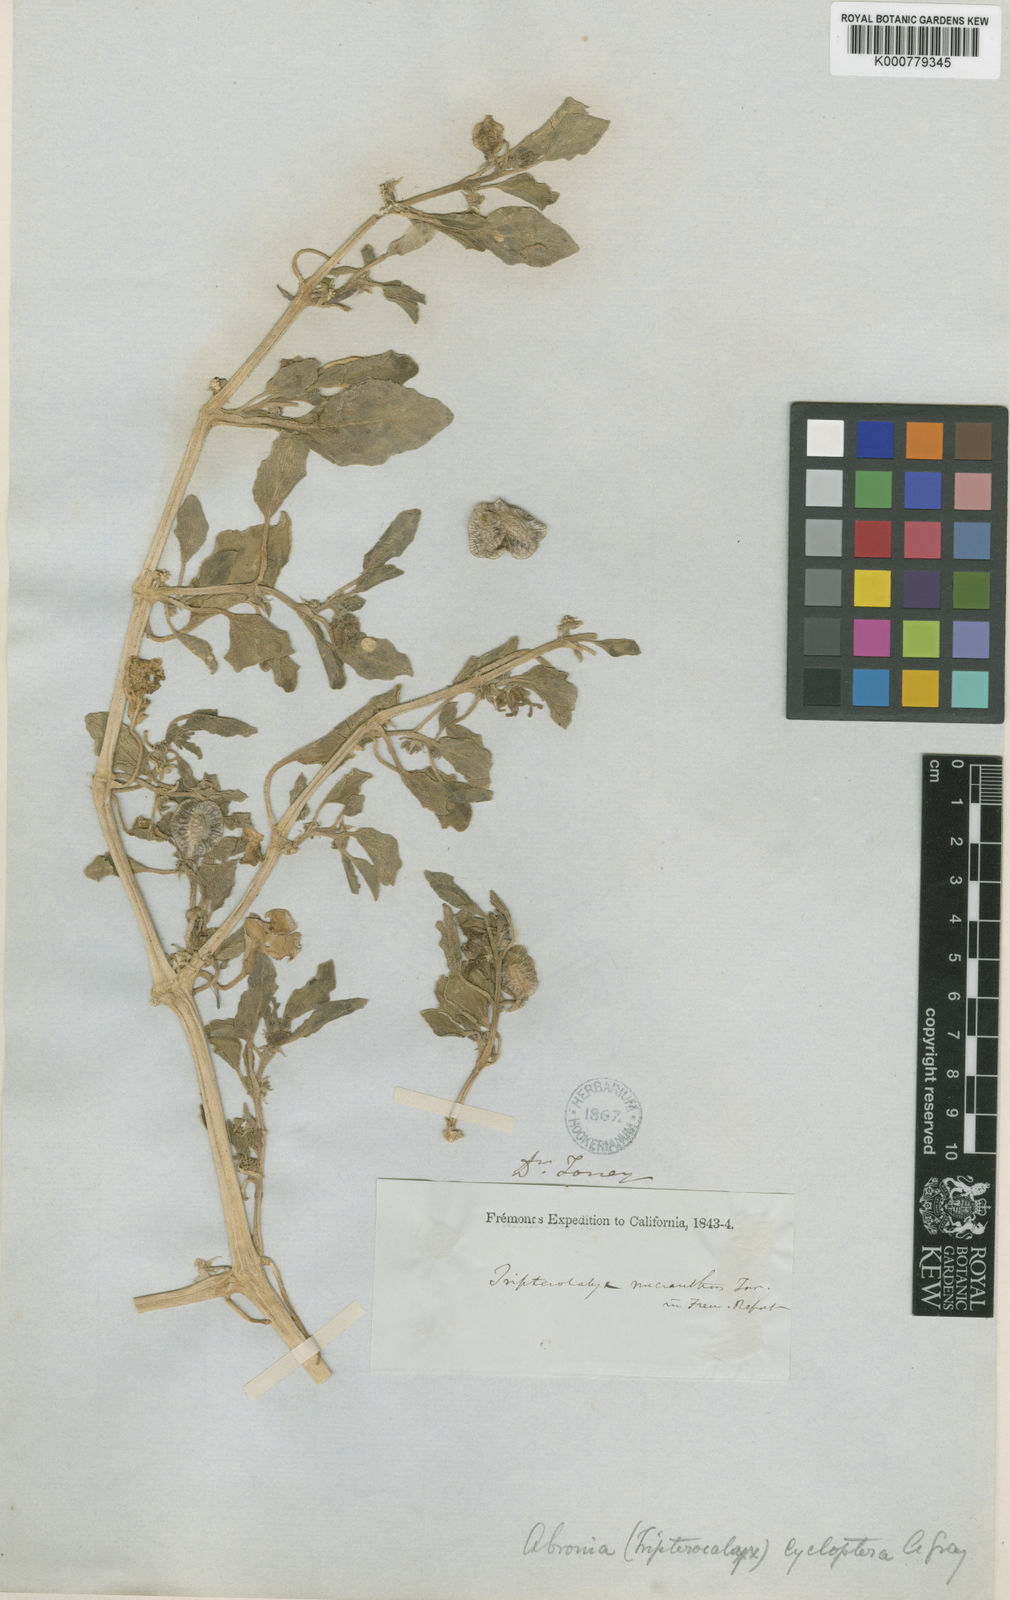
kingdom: Plantae
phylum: Tracheophyta
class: Magnoliopsida
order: Caryophyllales
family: Nyctaginaceae
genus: Tripterocalyx
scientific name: Tripterocalyx micranthus
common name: Small-flowered sand-verbena
